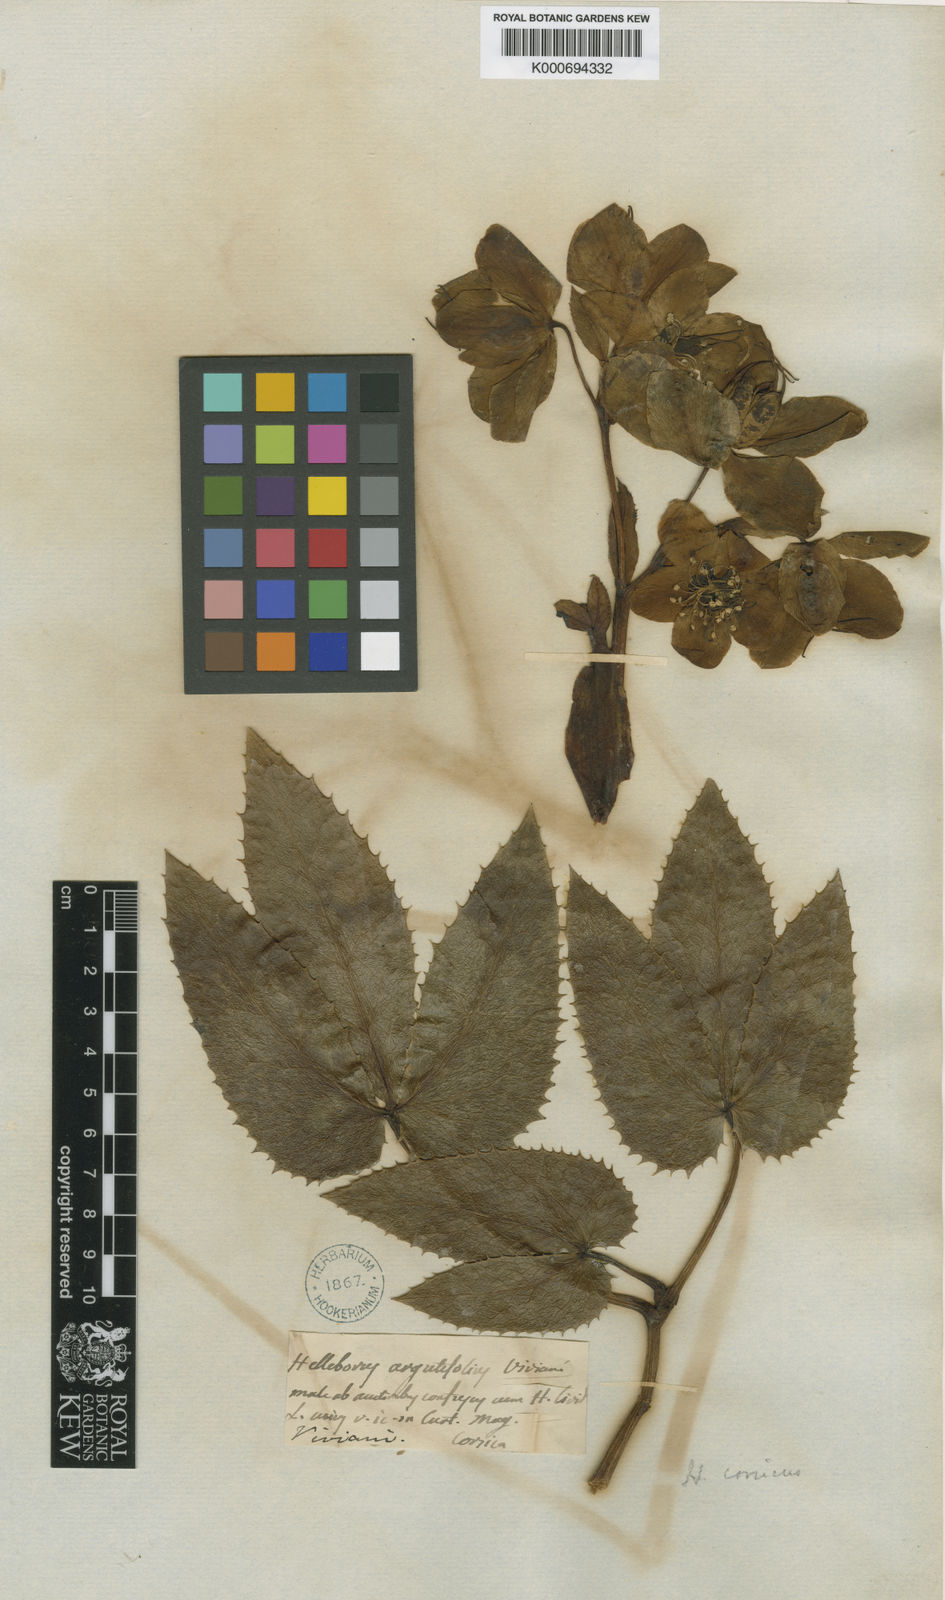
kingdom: Plantae
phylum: Tracheophyta
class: Magnoliopsida
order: Ranunculales
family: Ranunculaceae
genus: Helleborus
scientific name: Helleborus argutifolius
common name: Corsican hellebore
